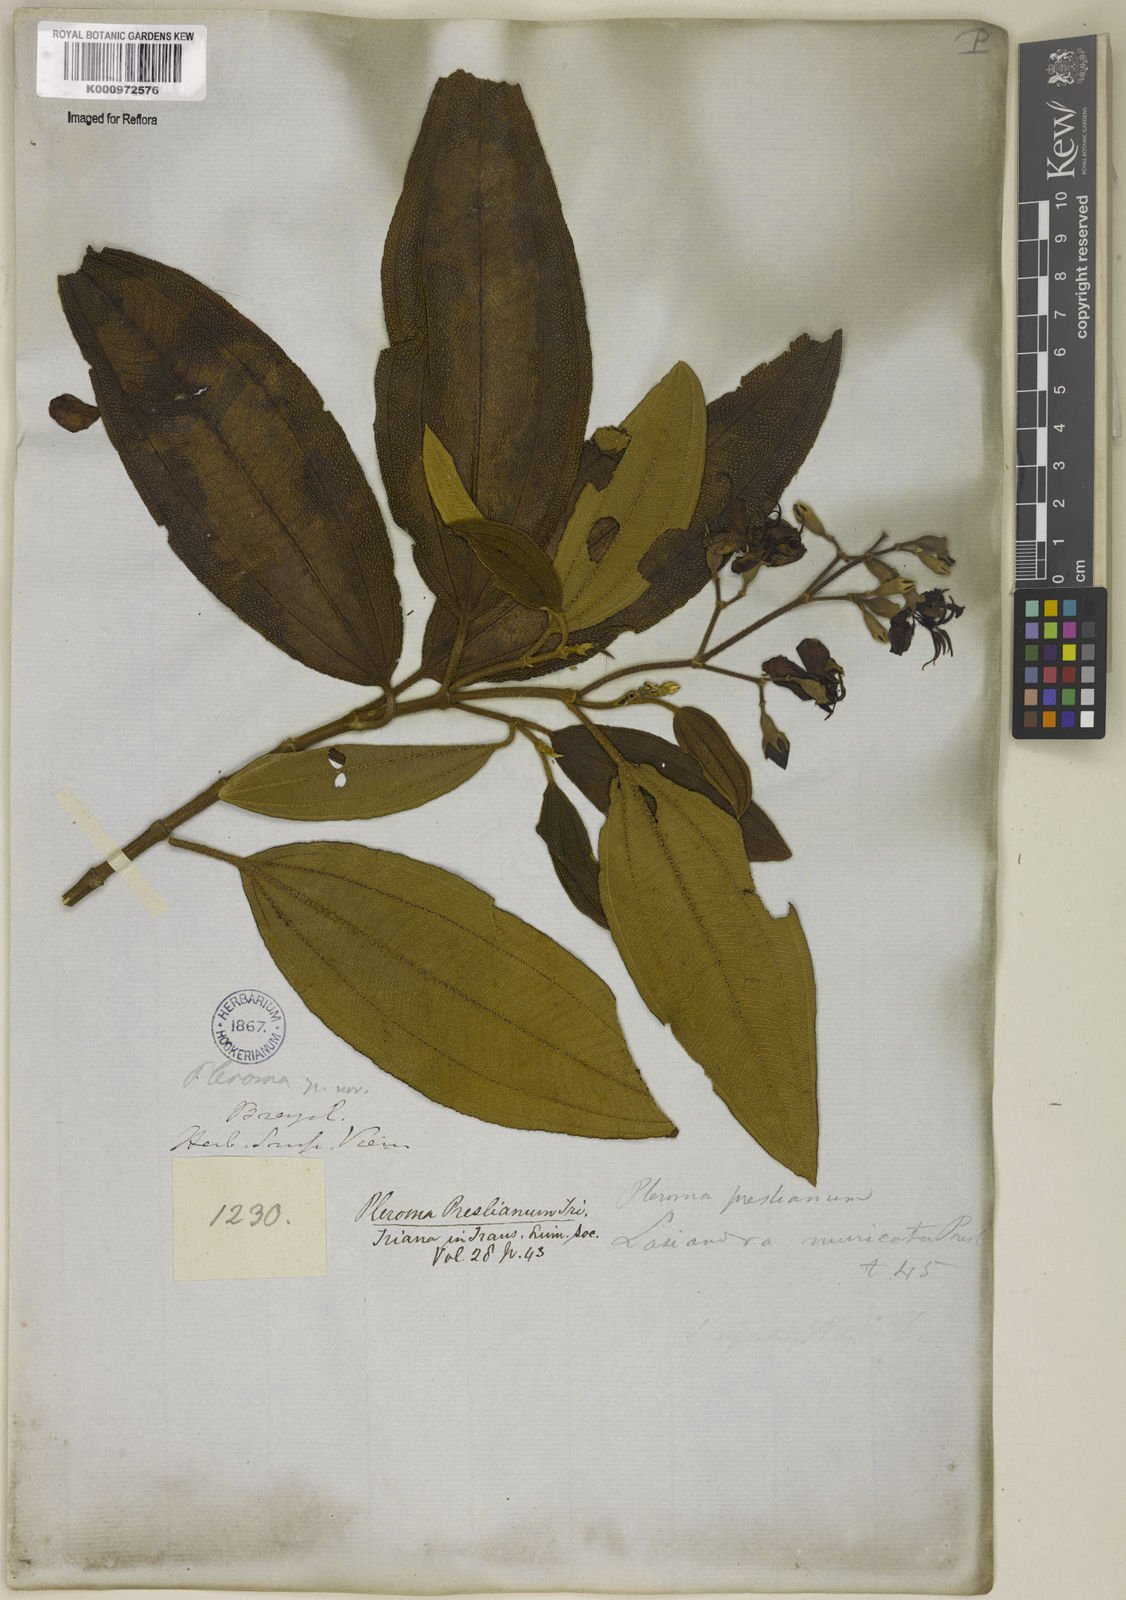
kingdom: Plantae
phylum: Tracheophyta
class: Magnoliopsida
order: Myrtales
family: Melastomataceae
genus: Pleroma
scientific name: Pleroma estrellense
